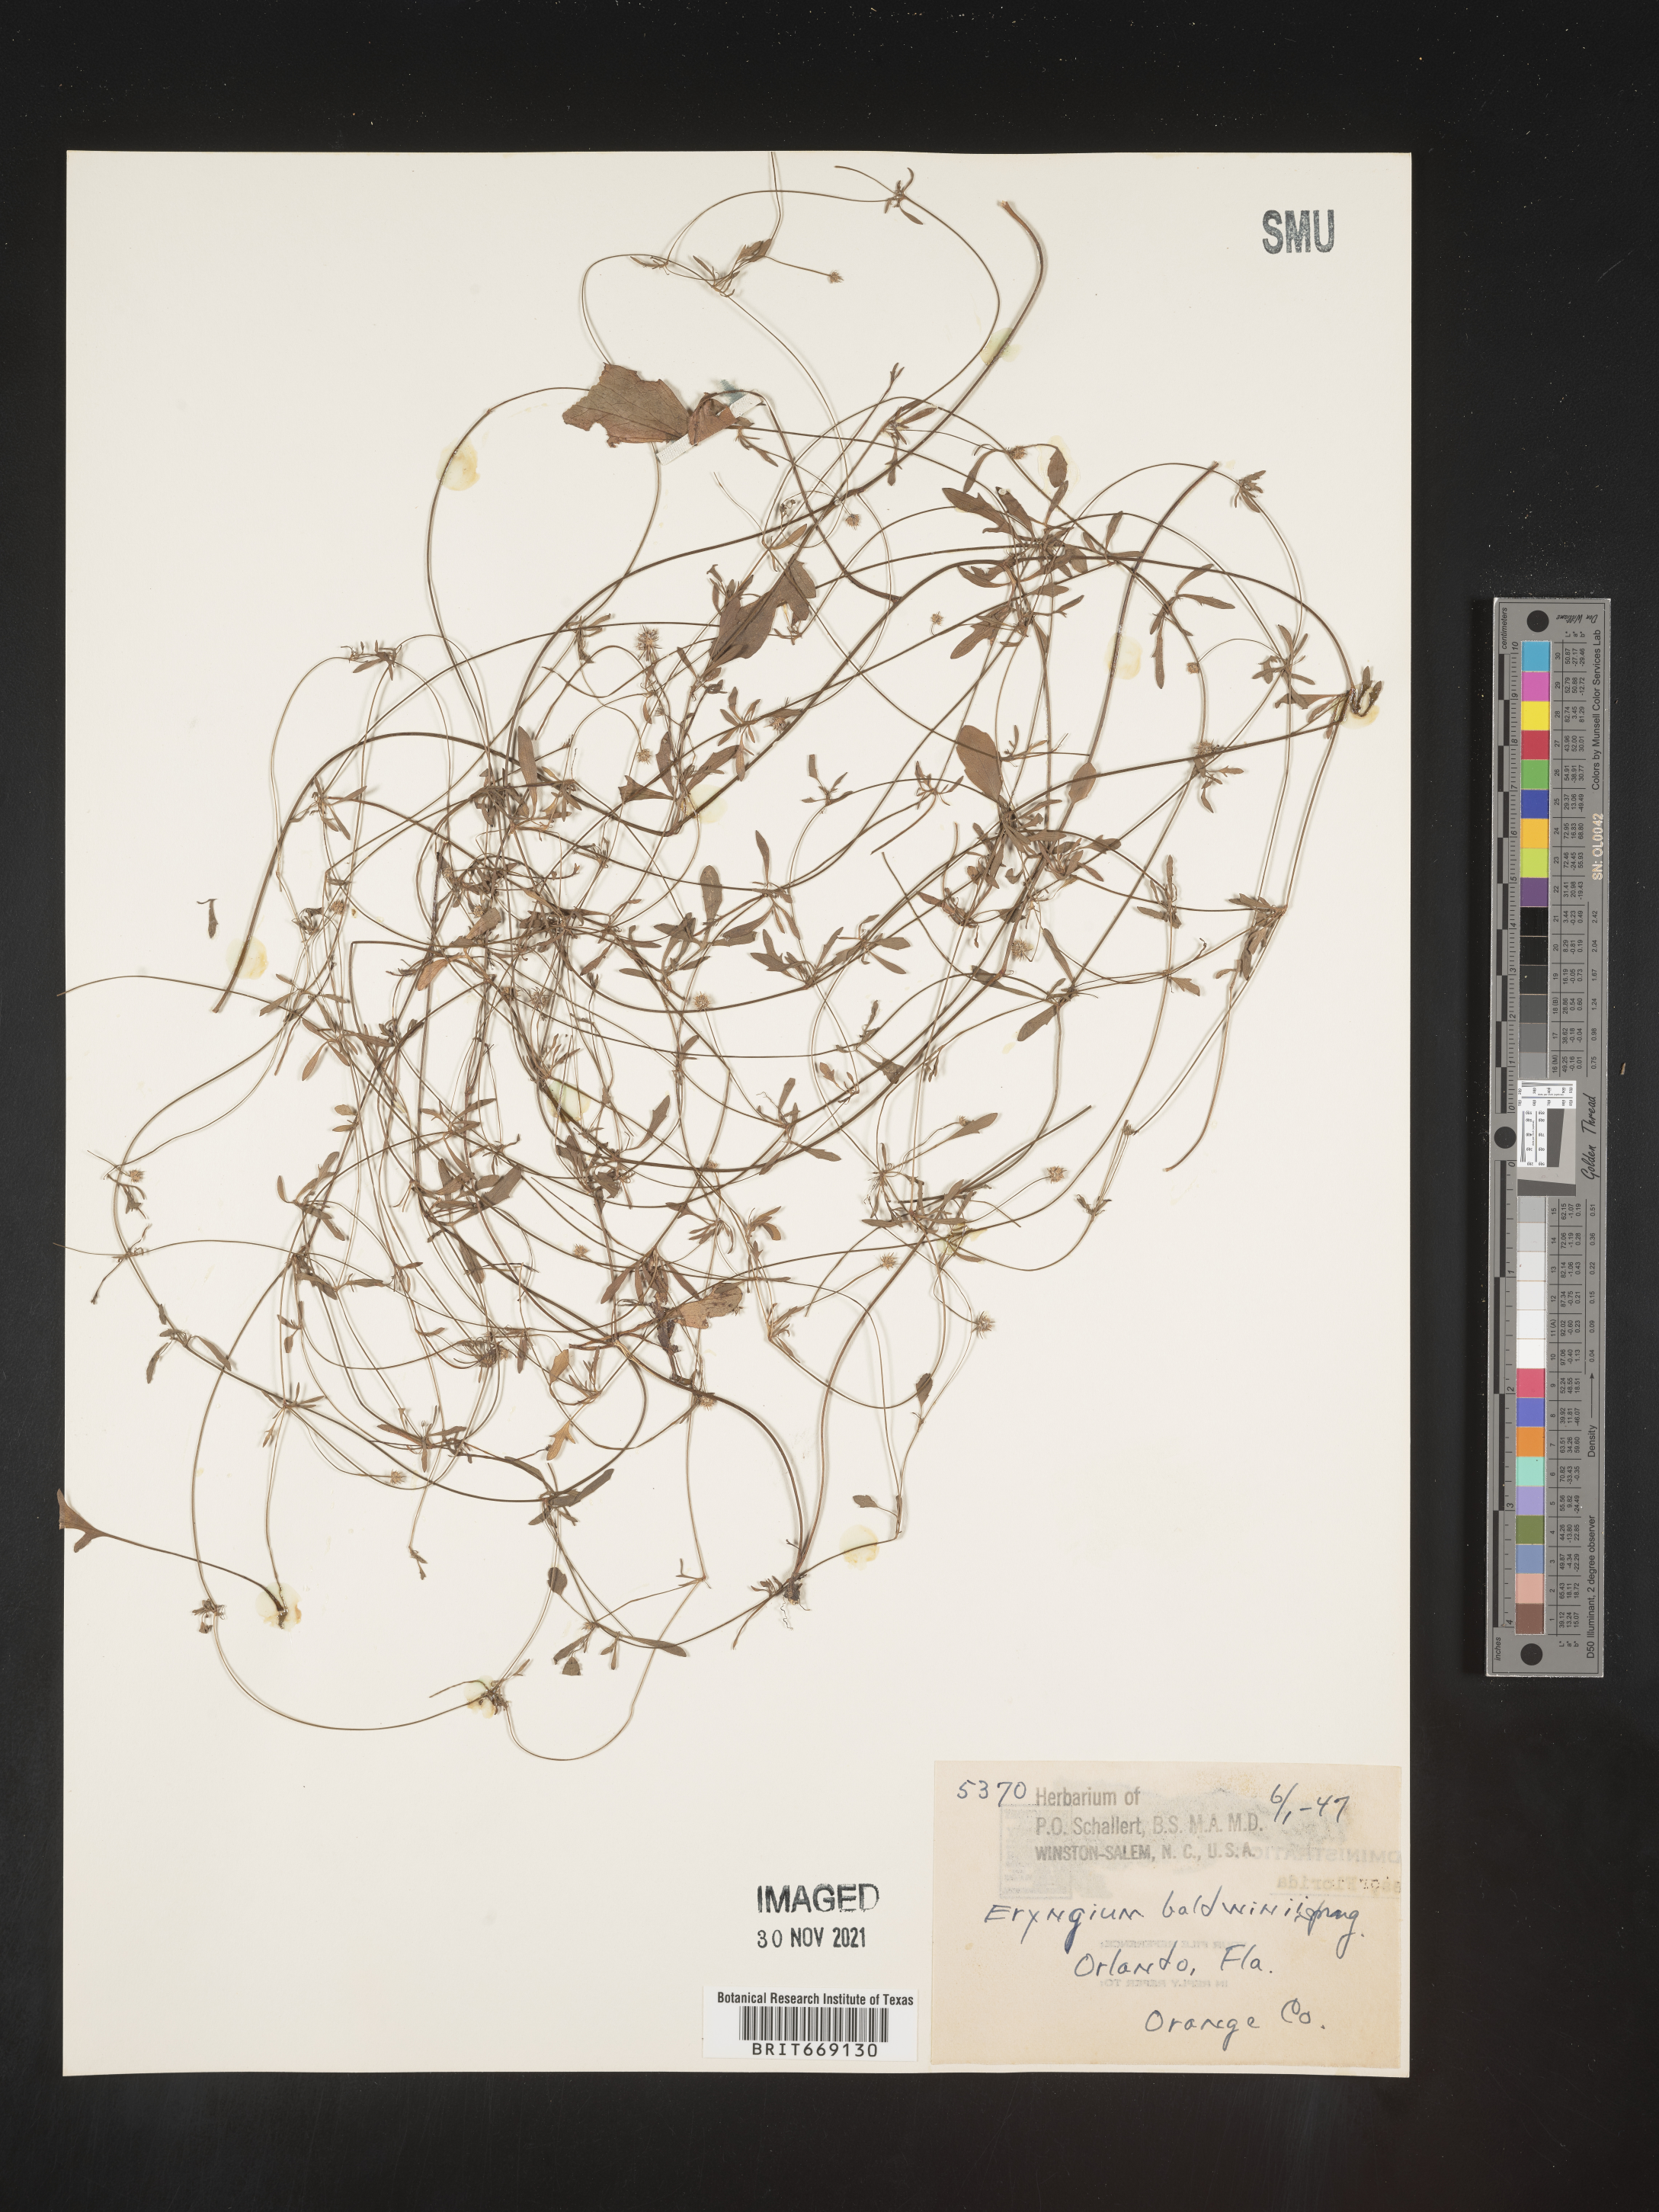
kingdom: Plantae
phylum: Tracheophyta
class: Magnoliopsida
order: Apiales
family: Apiaceae
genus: Eryngium
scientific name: Eryngium baldwinii
